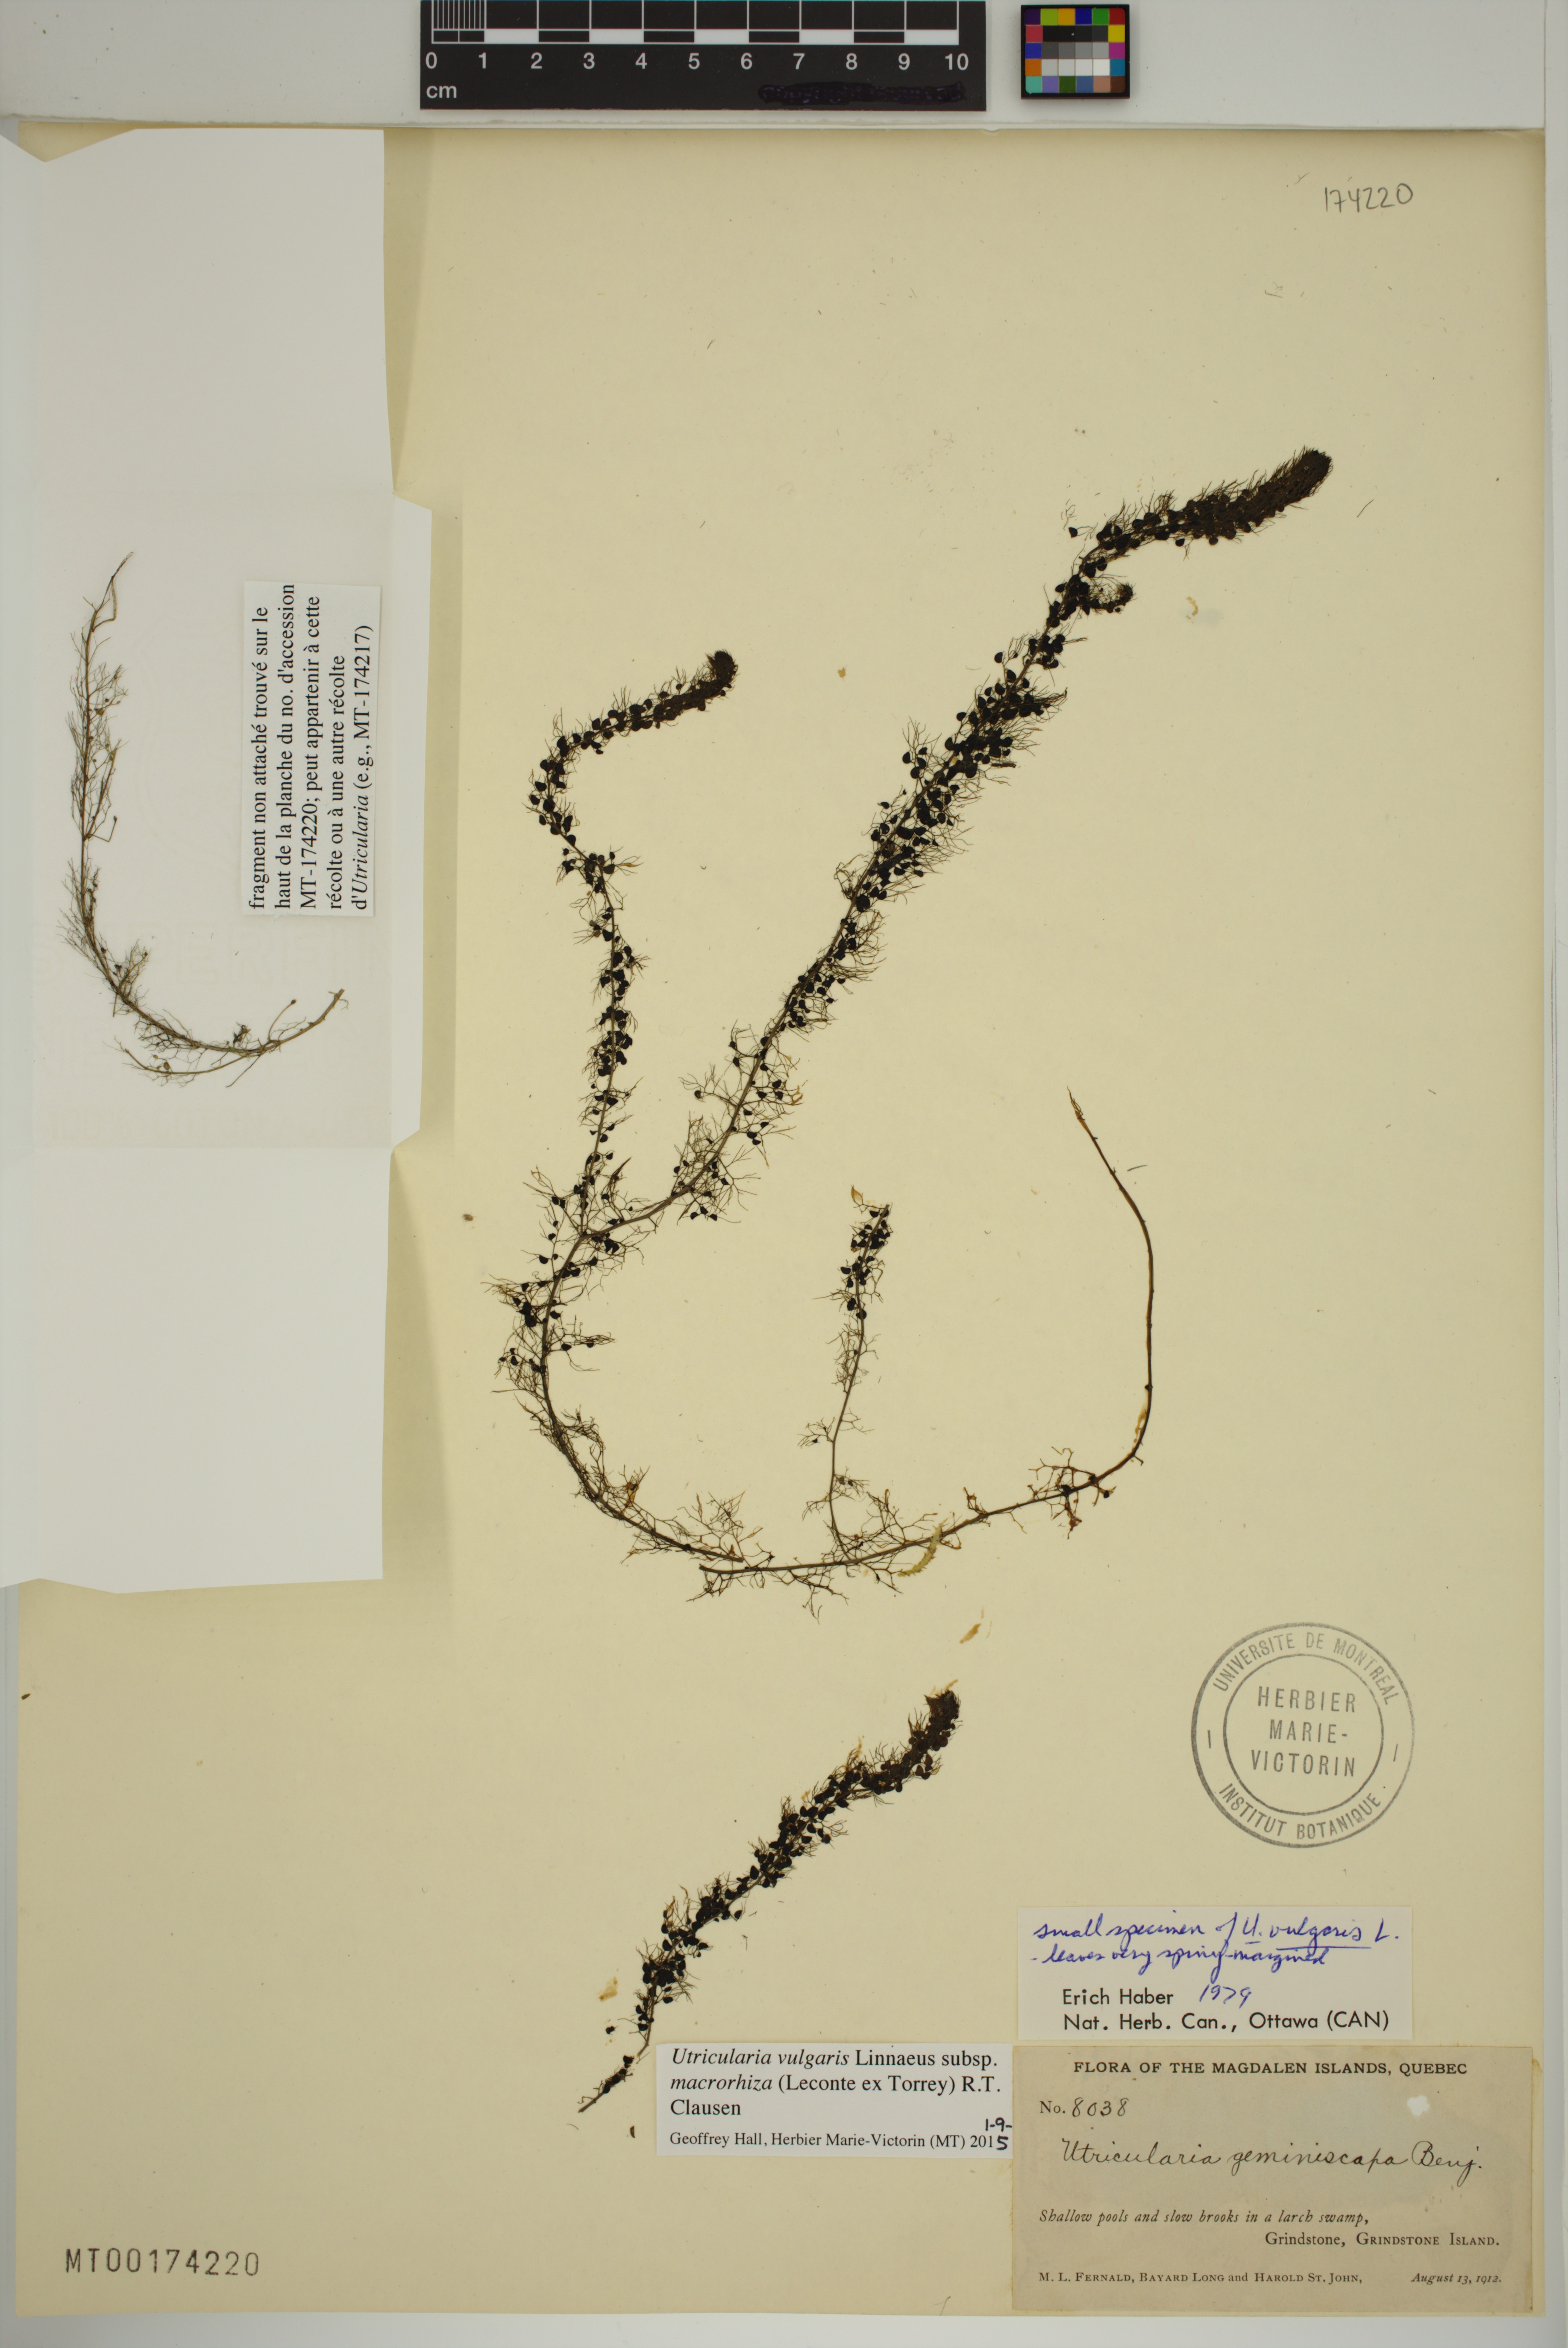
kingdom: Plantae
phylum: Tracheophyta
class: Magnoliopsida
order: Lamiales
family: Lentibulariaceae
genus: Utricularia
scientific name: Utricularia macrorhiza
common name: Common bladderwort
